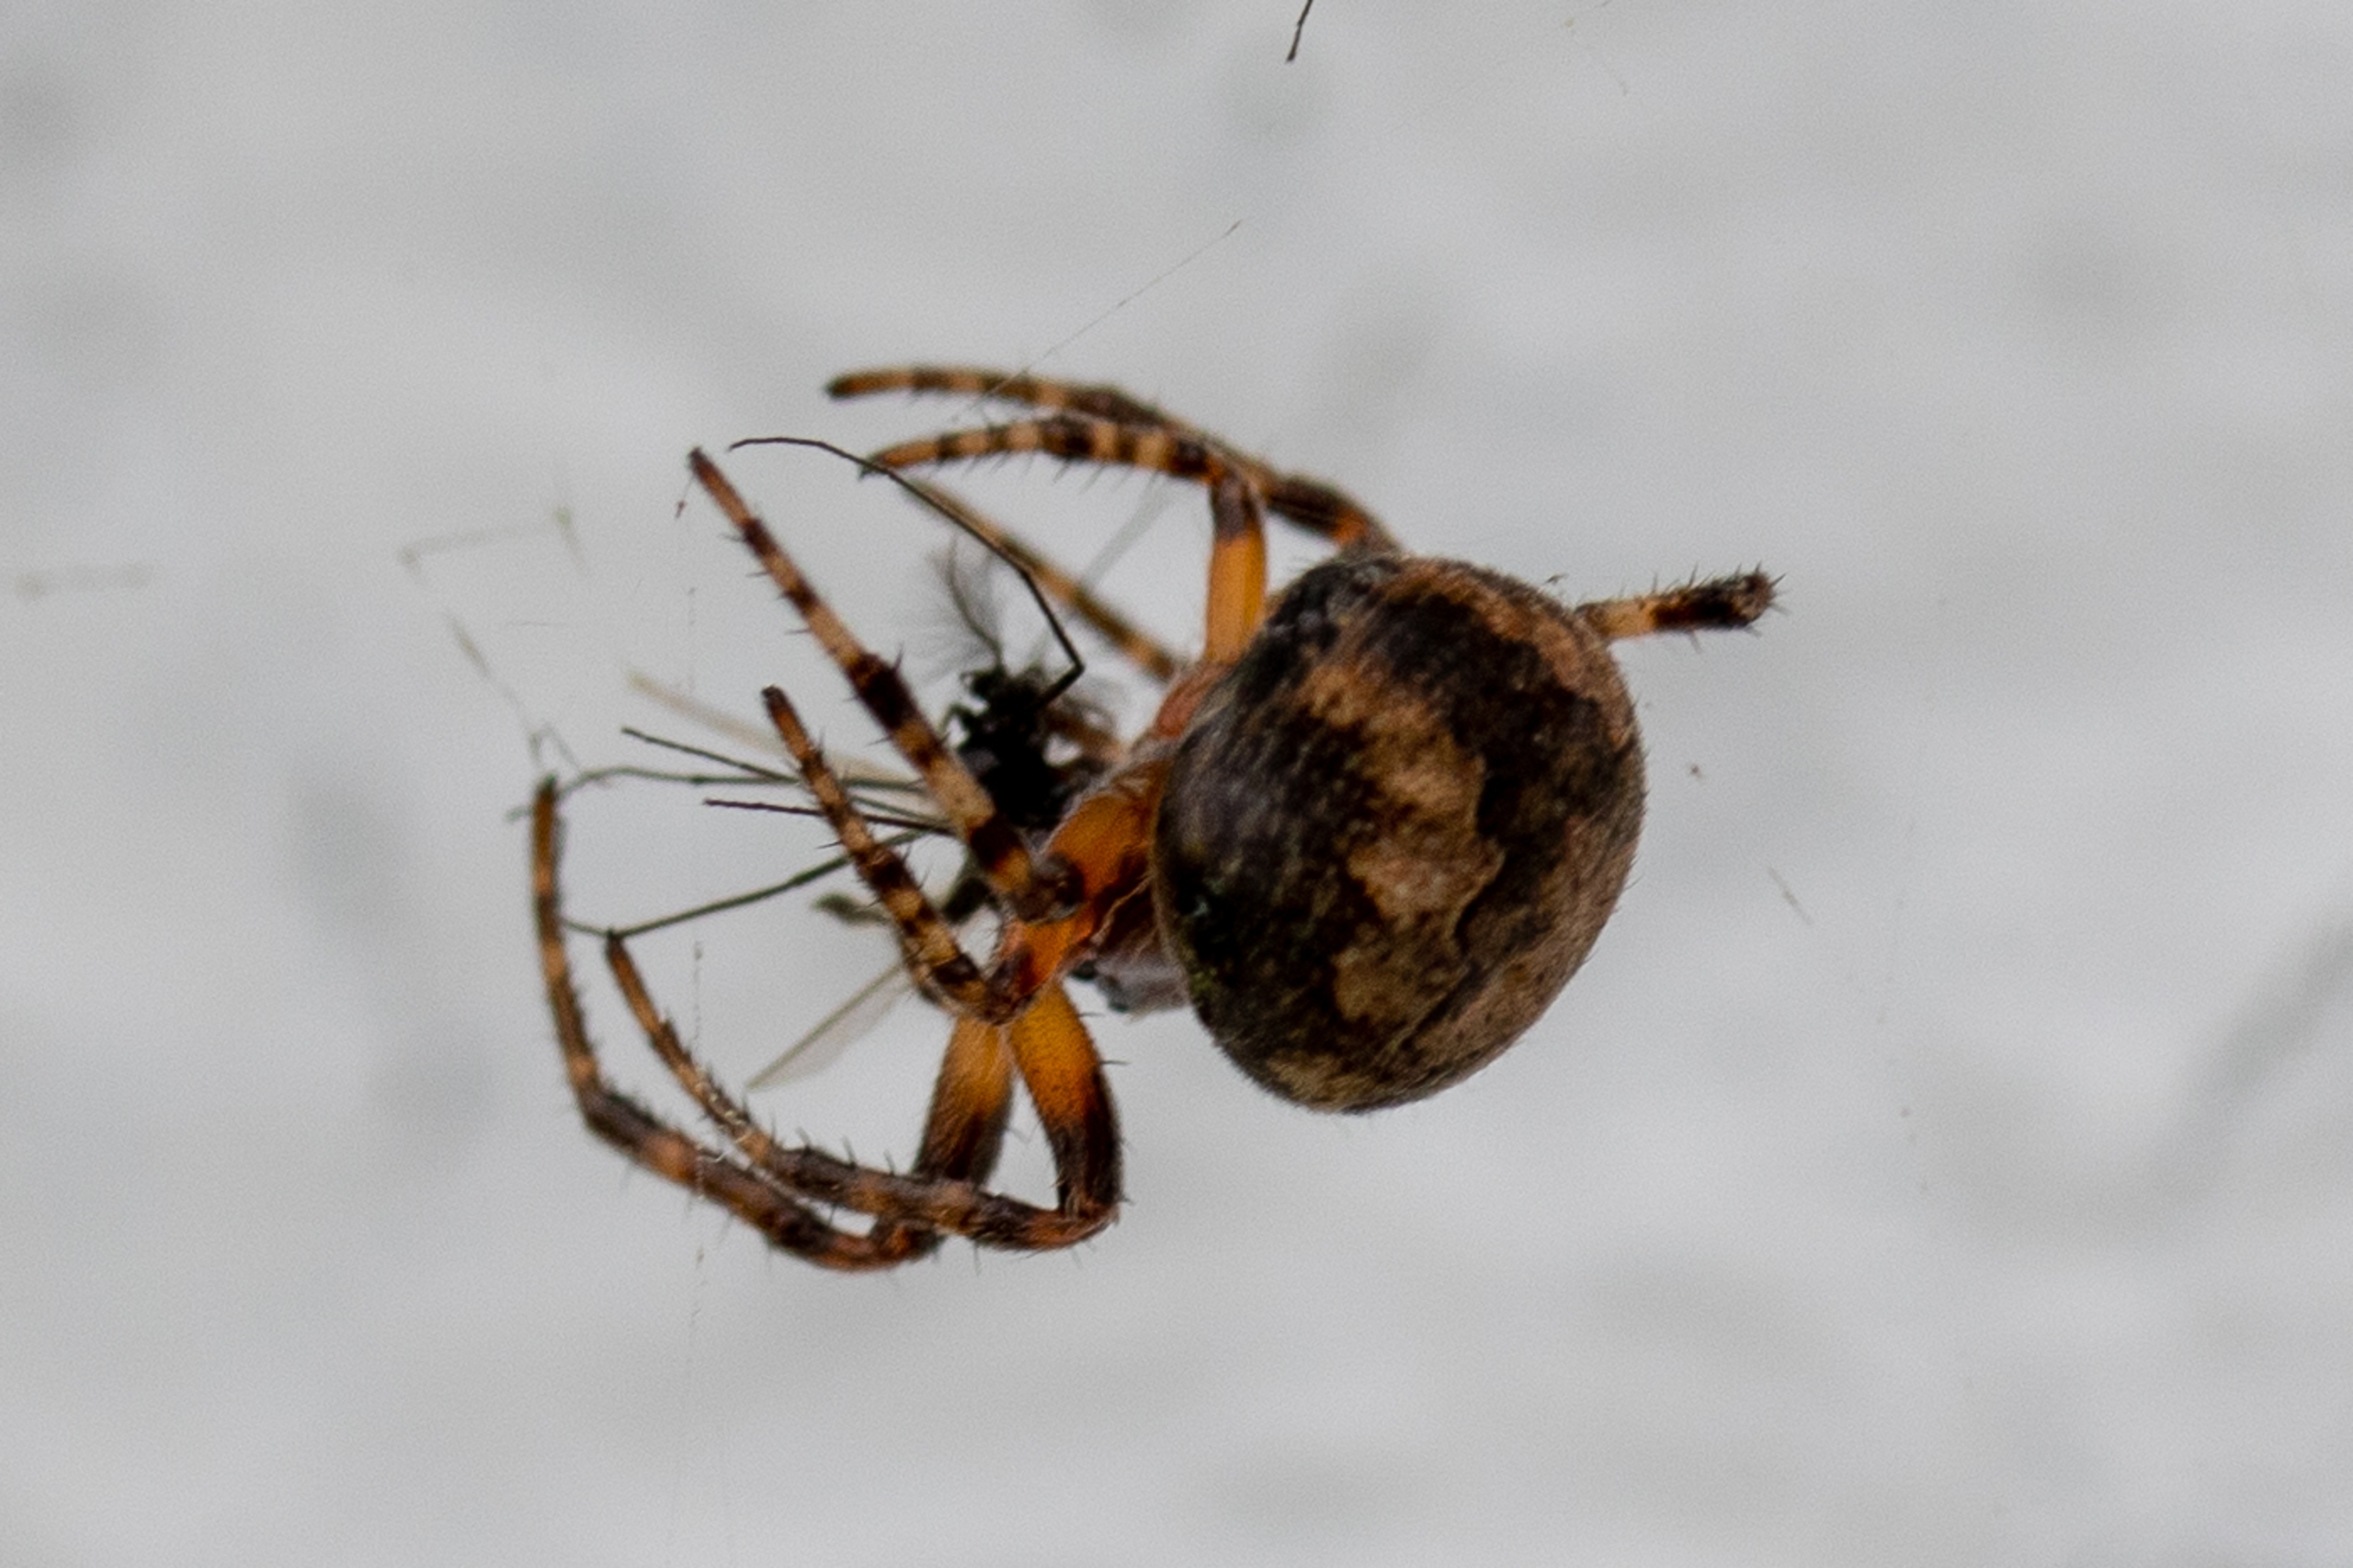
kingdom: Animalia
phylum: Arthropoda
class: Arachnida
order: Araneae
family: Araneidae
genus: Araneus
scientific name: Araneus diadematus
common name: Korsedderkop
